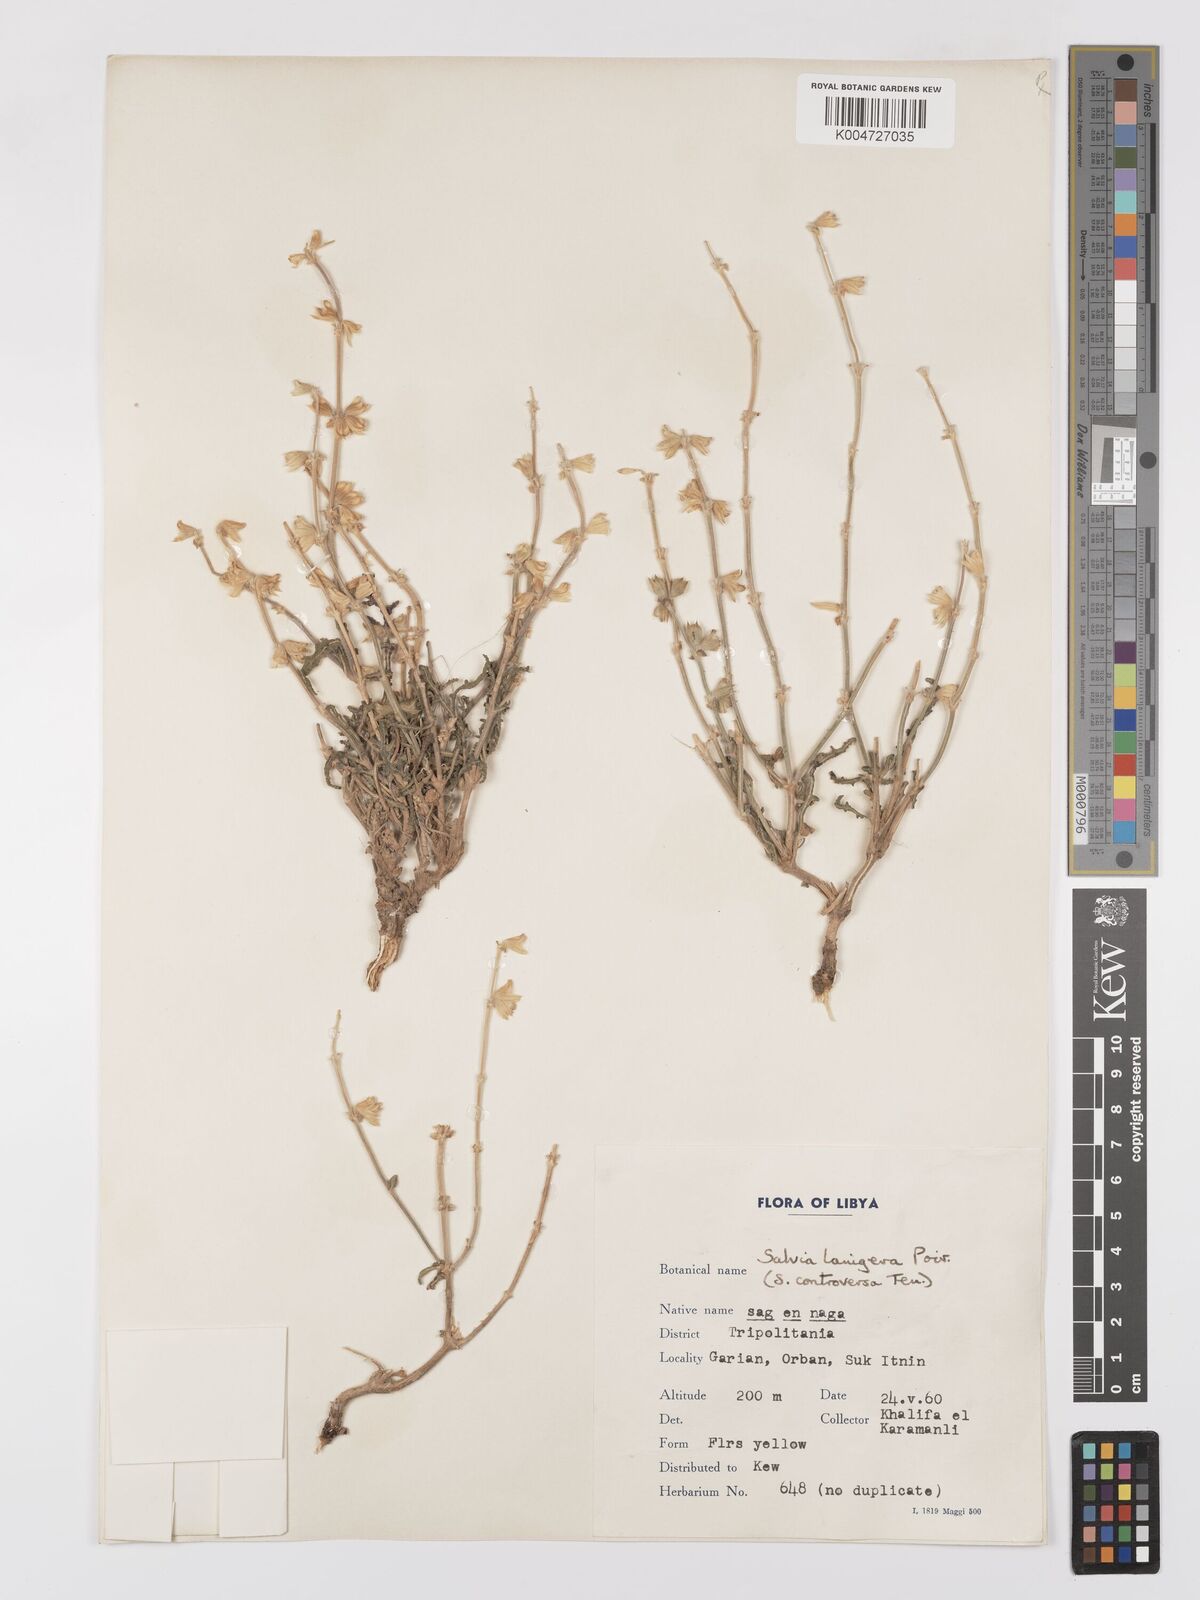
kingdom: Plantae
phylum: Tracheophyta
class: Magnoliopsida
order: Lamiales
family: Lamiaceae
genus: Salvia
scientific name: Salvia lanigera
